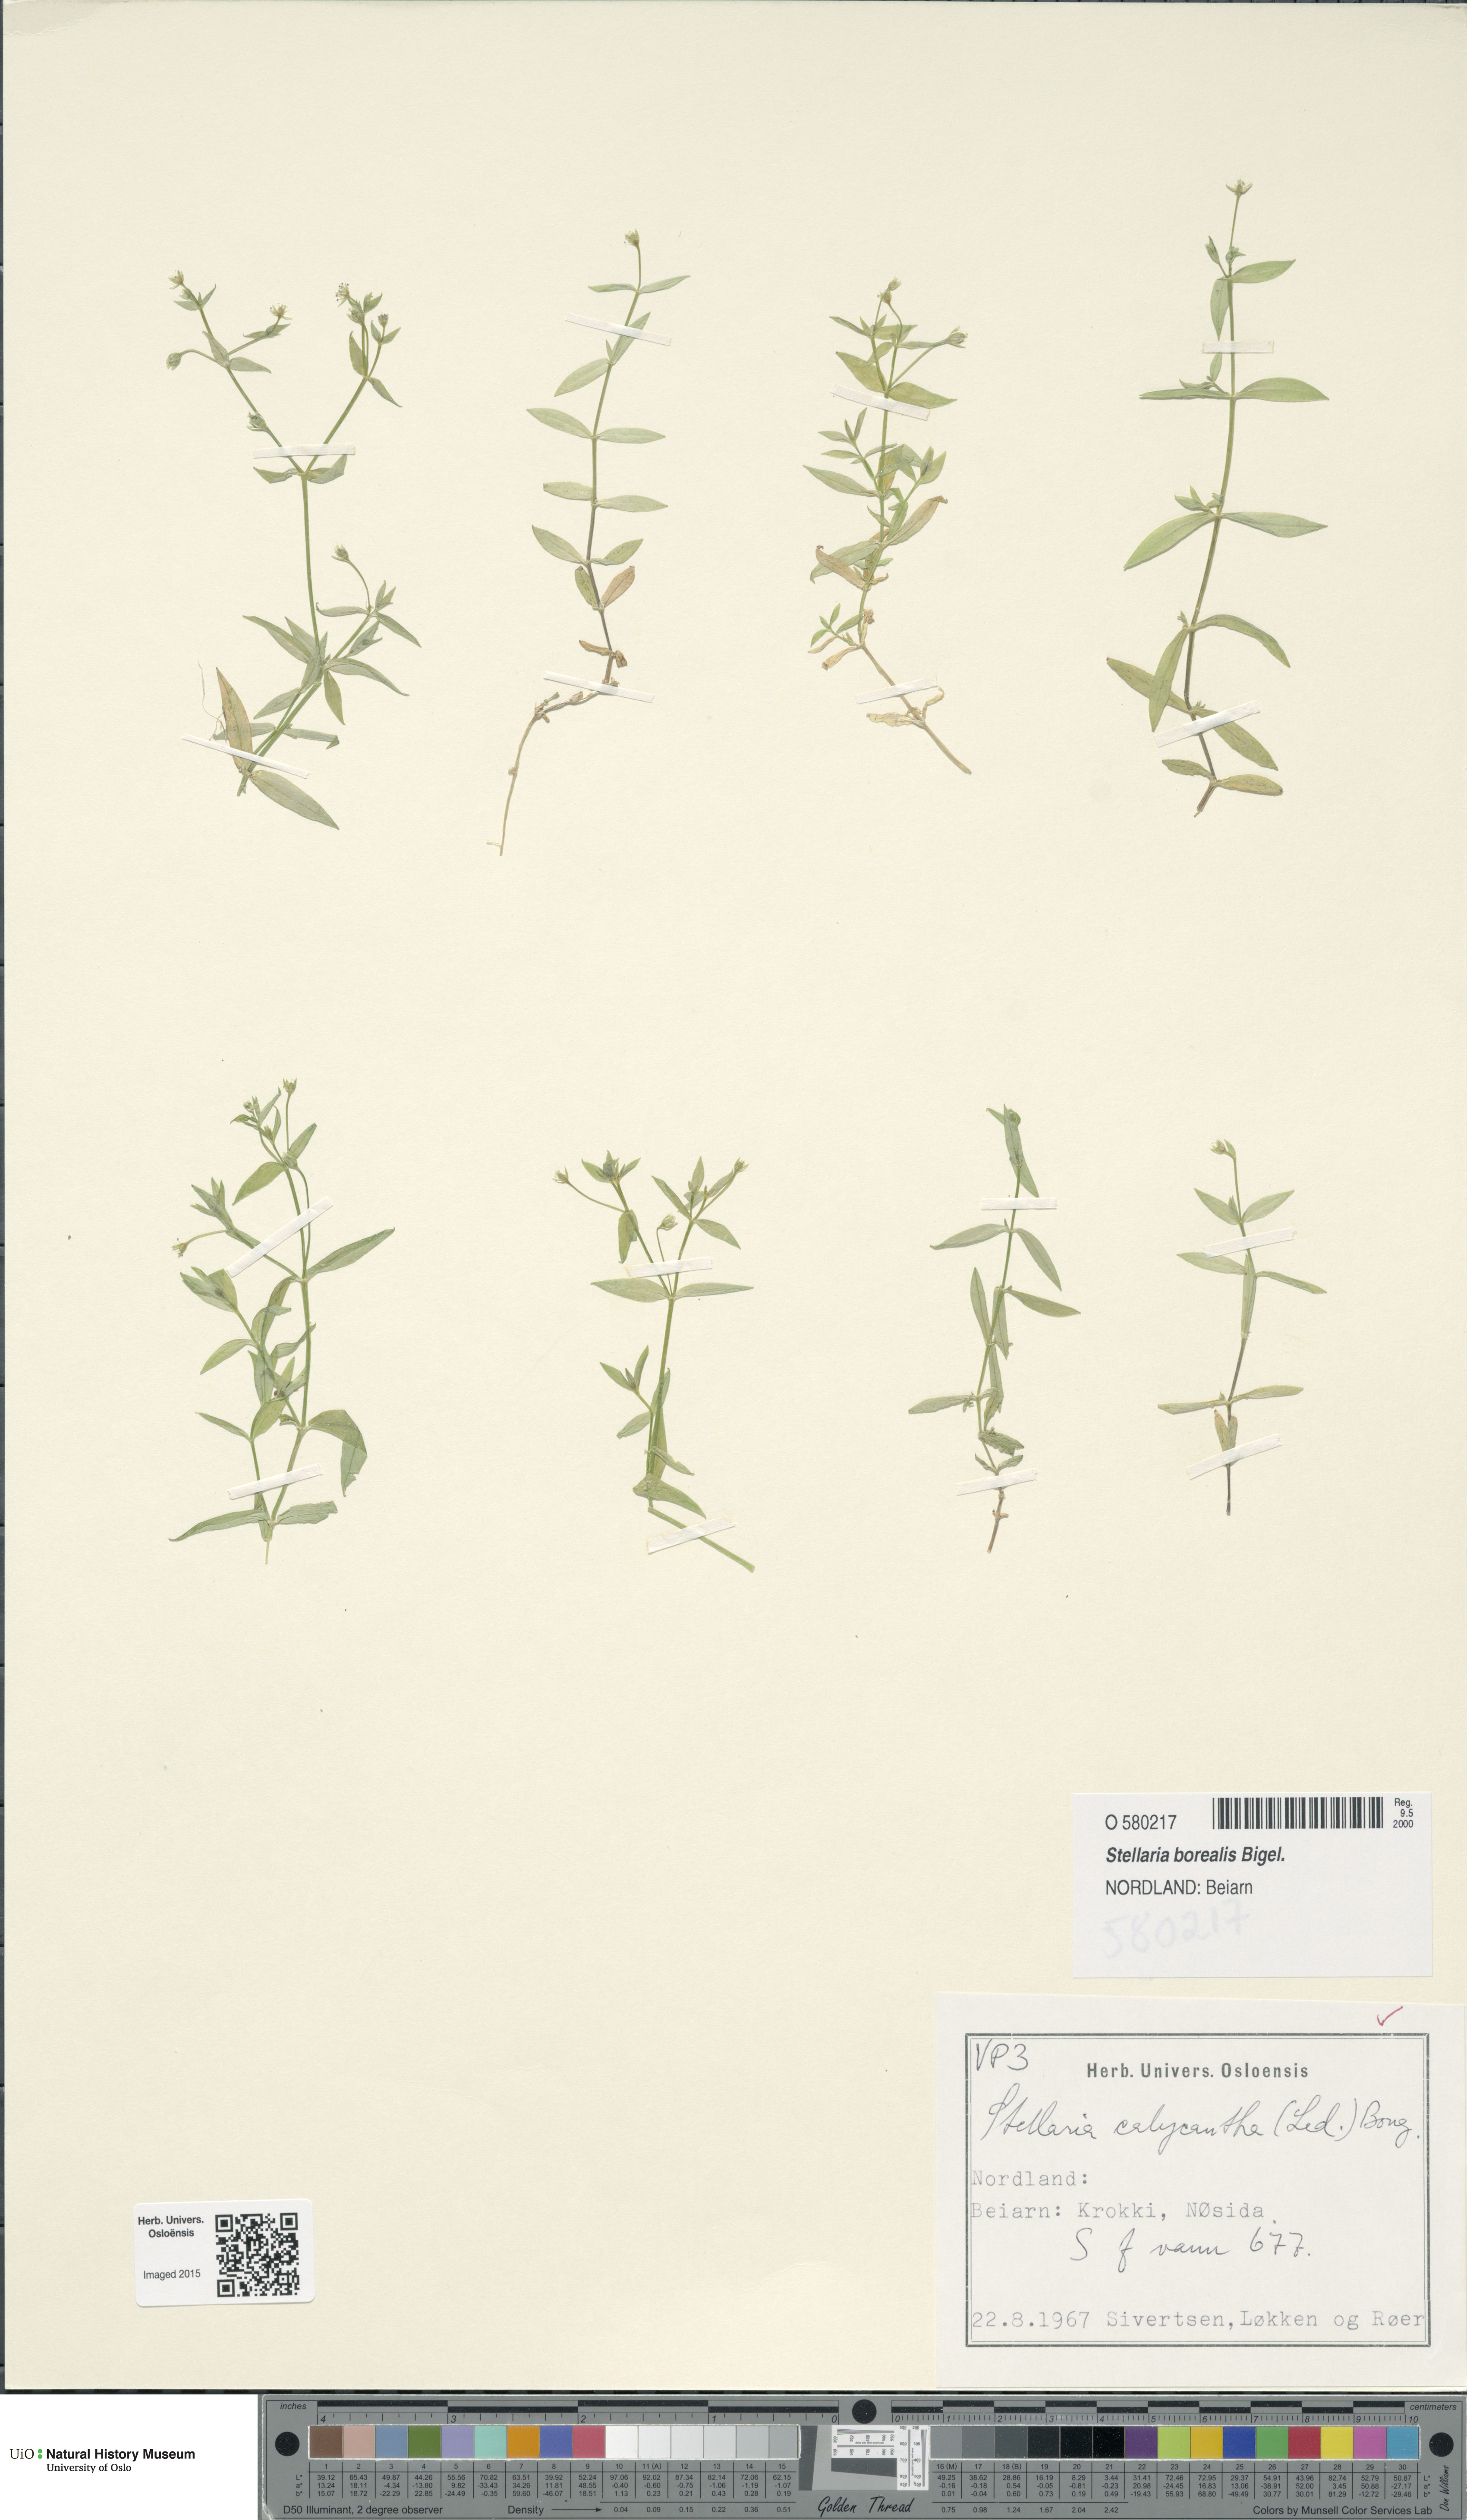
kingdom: Plantae
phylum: Tracheophyta
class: Magnoliopsida
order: Caryophyllales
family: Caryophyllaceae
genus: Stellaria
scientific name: Stellaria borealis
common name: Boreal starwort
